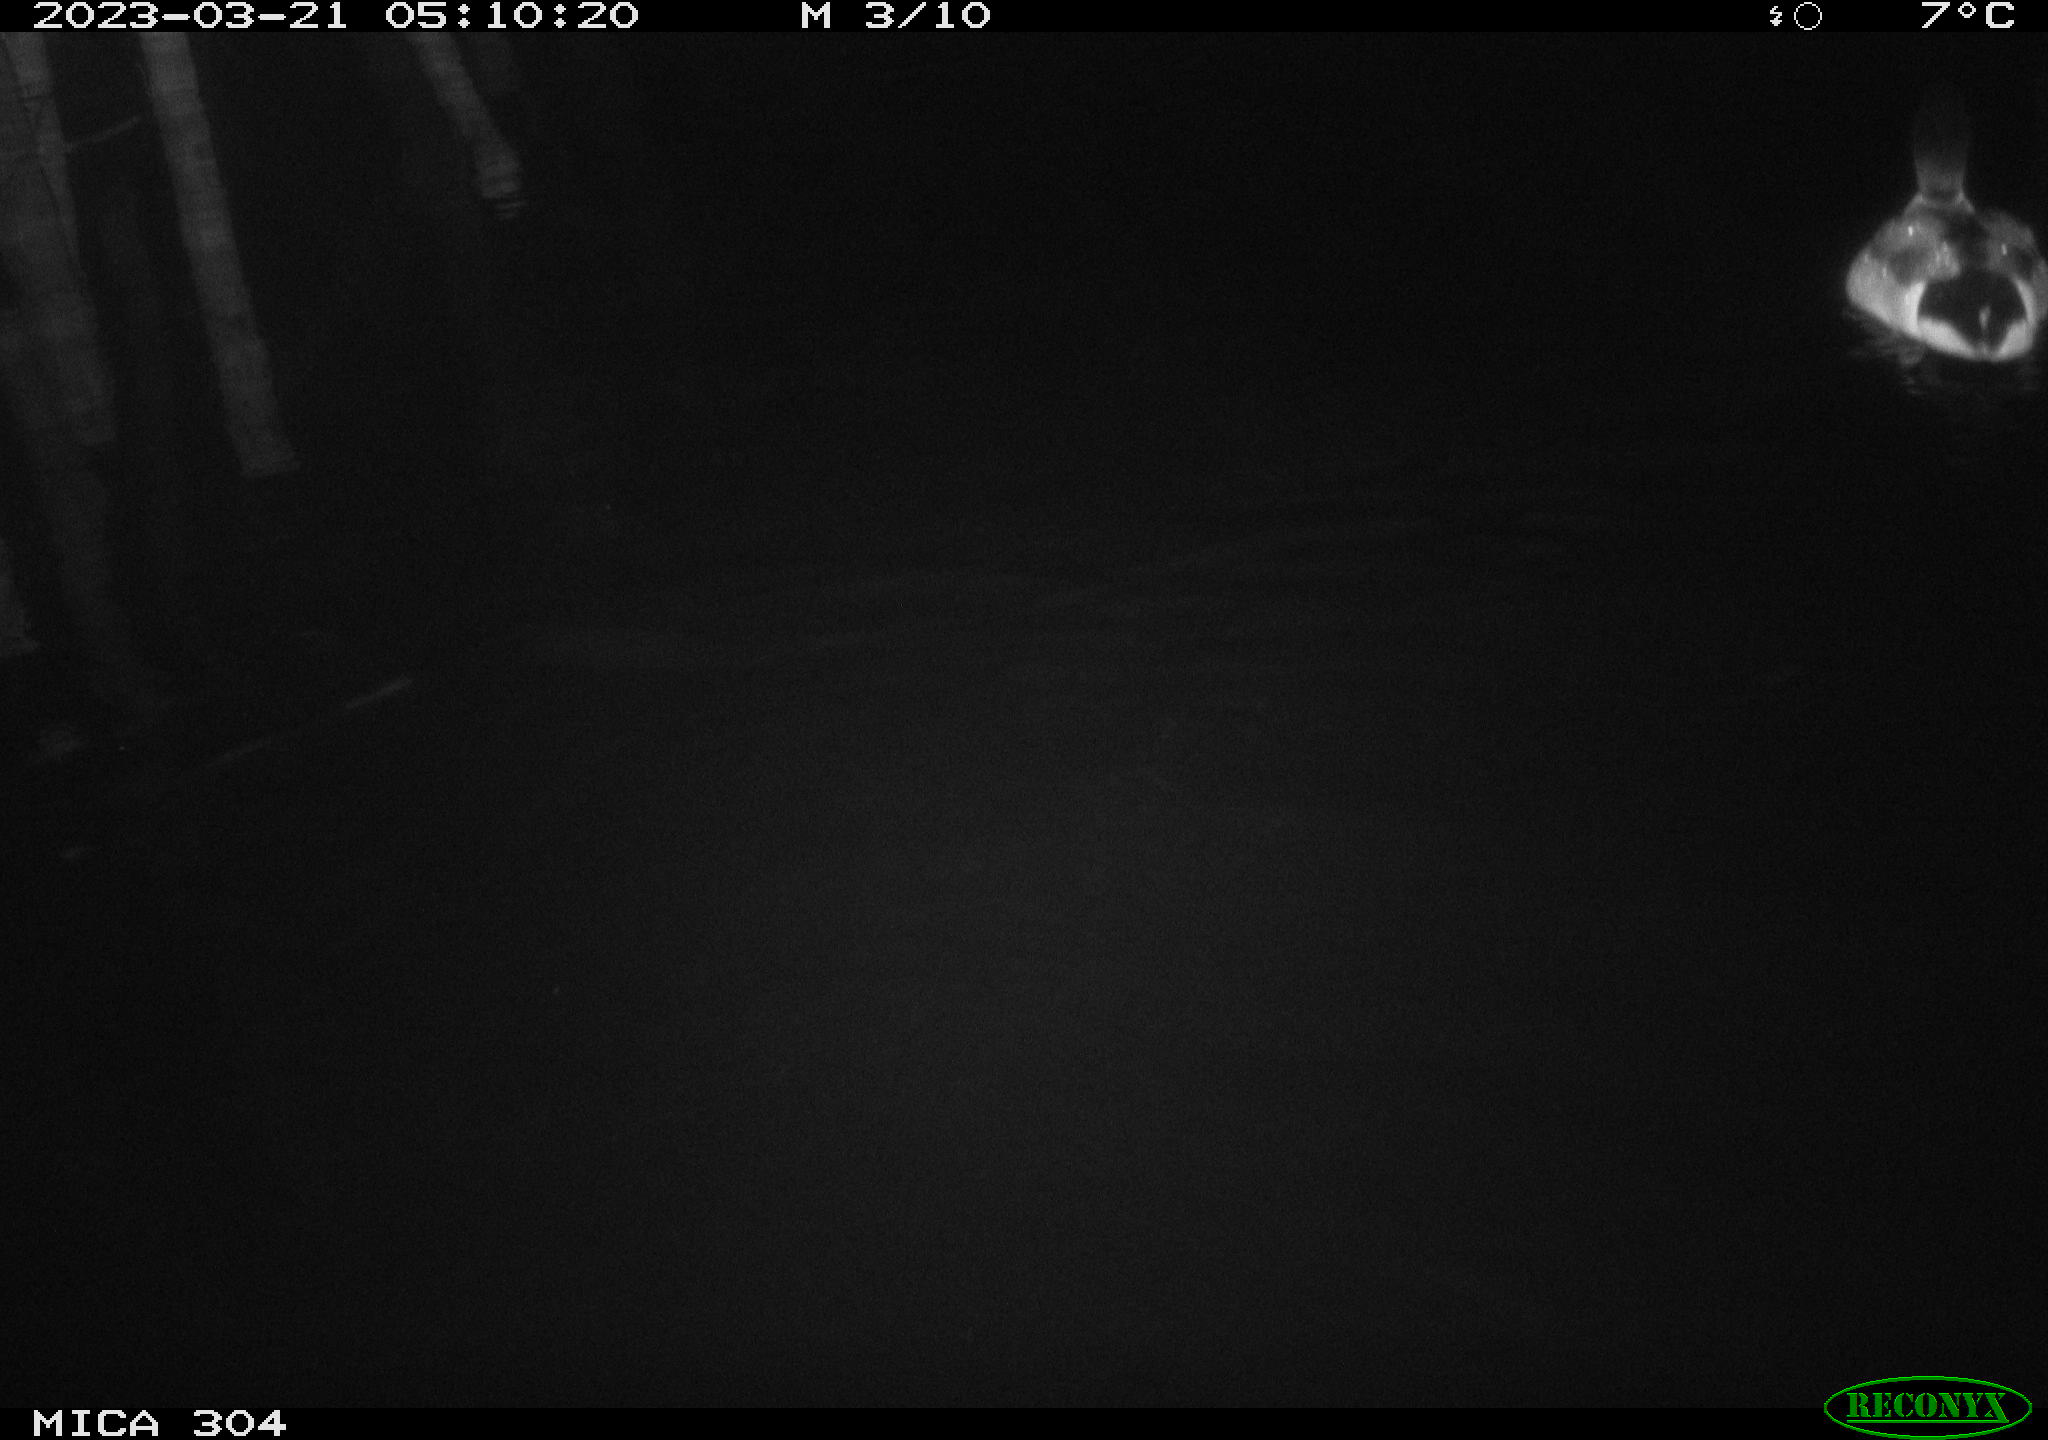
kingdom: Animalia
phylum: Chordata
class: Aves
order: Anseriformes
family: Anatidae
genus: Anas
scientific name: Anas
